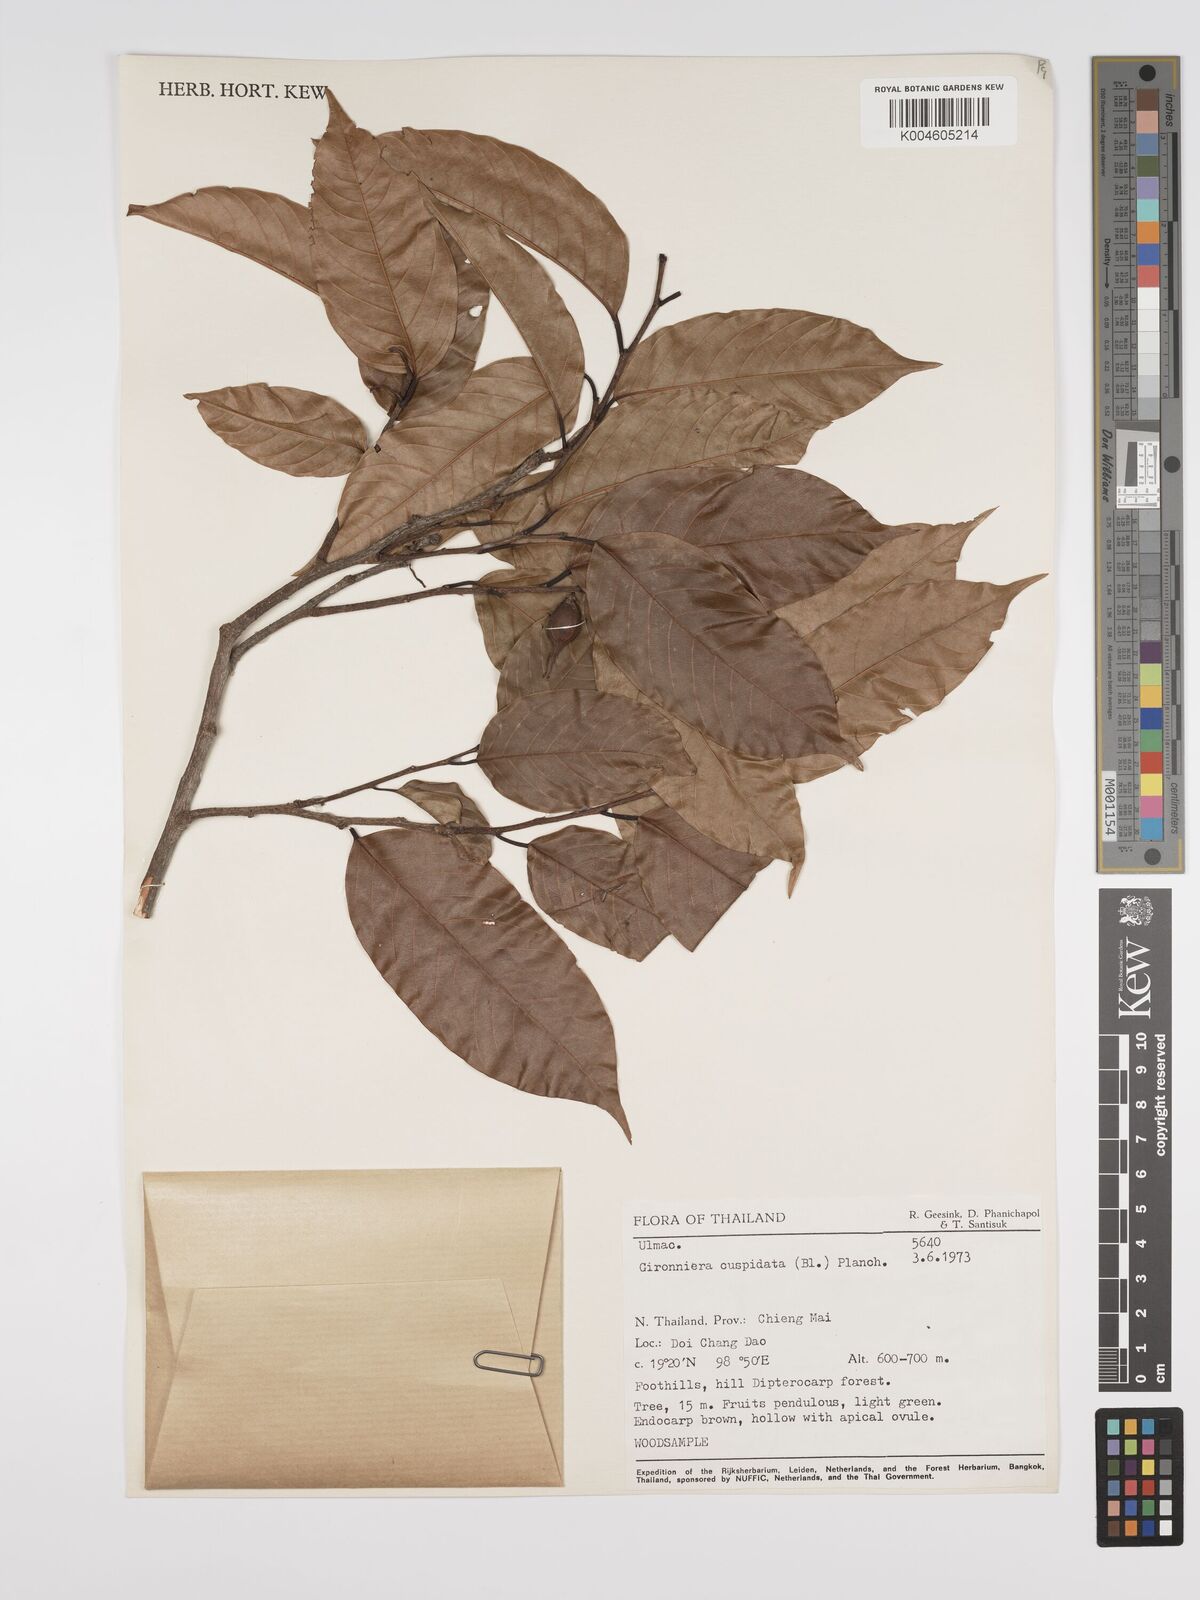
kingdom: Plantae
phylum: Tracheophyta
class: Magnoliopsida
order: Rosales
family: Cannabaceae
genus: Aphananthe
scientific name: Aphananthe cuspidata
